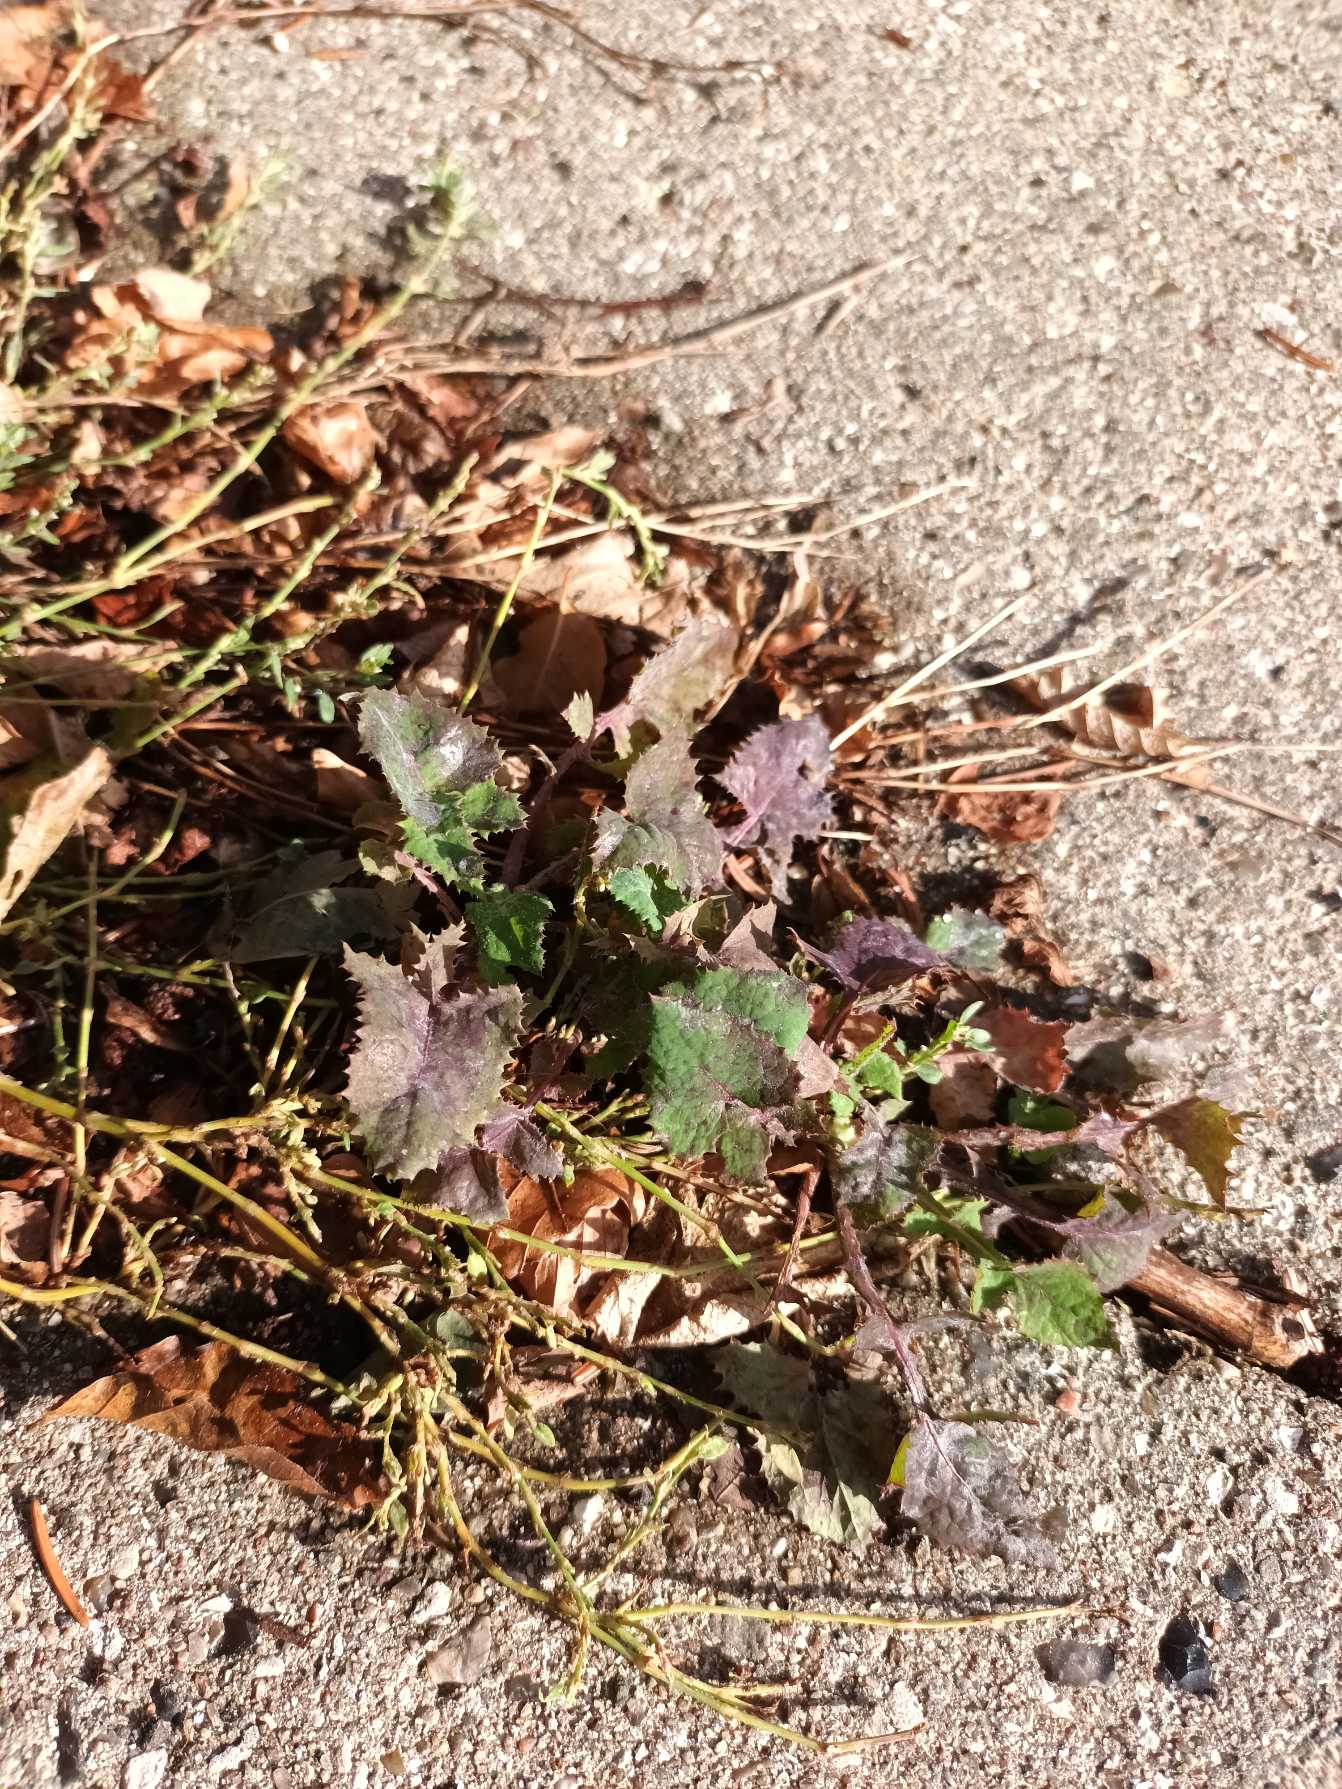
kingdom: Plantae
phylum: Tracheophyta
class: Magnoliopsida
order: Asterales
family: Asteraceae
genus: Sonchus
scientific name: Sonchus oleraceus
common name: Almindelig svinemælk
